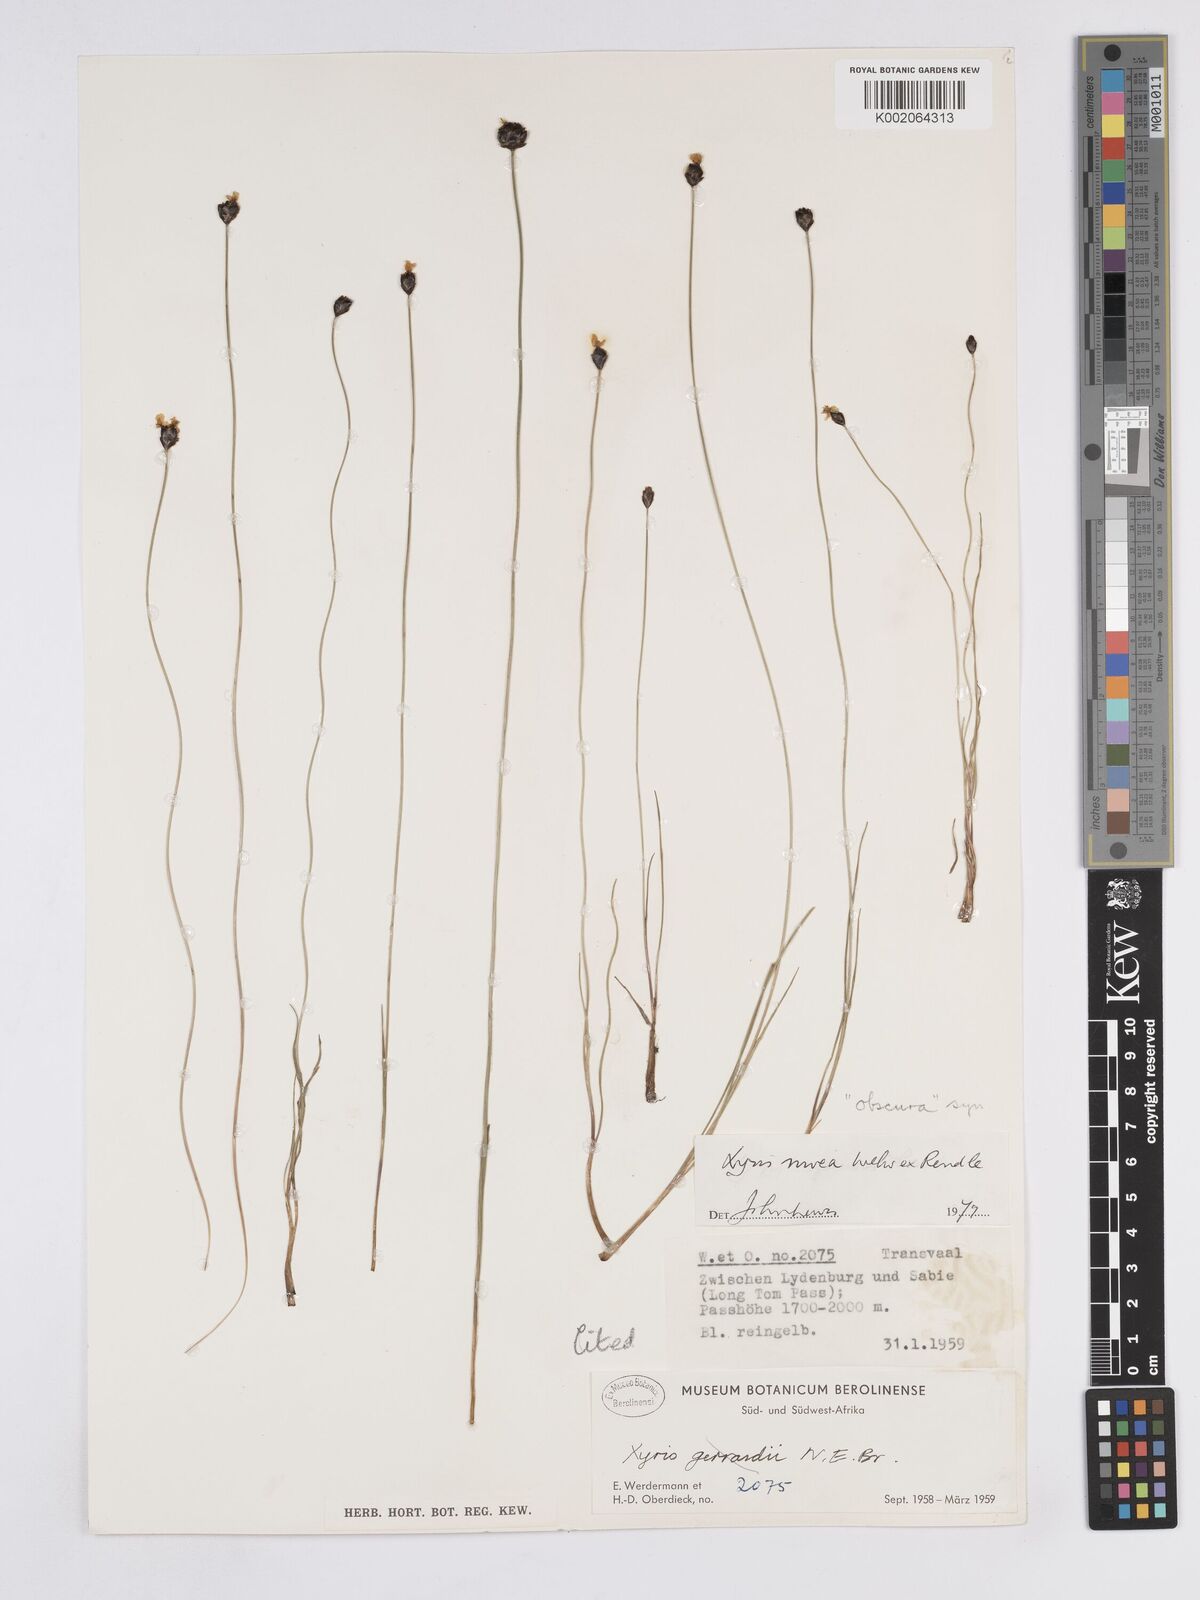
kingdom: Plantae
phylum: Tracheophyta
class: Liliopsida
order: Poales
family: Xyridaceae
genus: Xyris
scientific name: Xyris nivea
